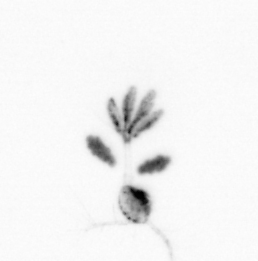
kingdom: Animalia
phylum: Arthropoda
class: Copepoda
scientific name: Copepoda
